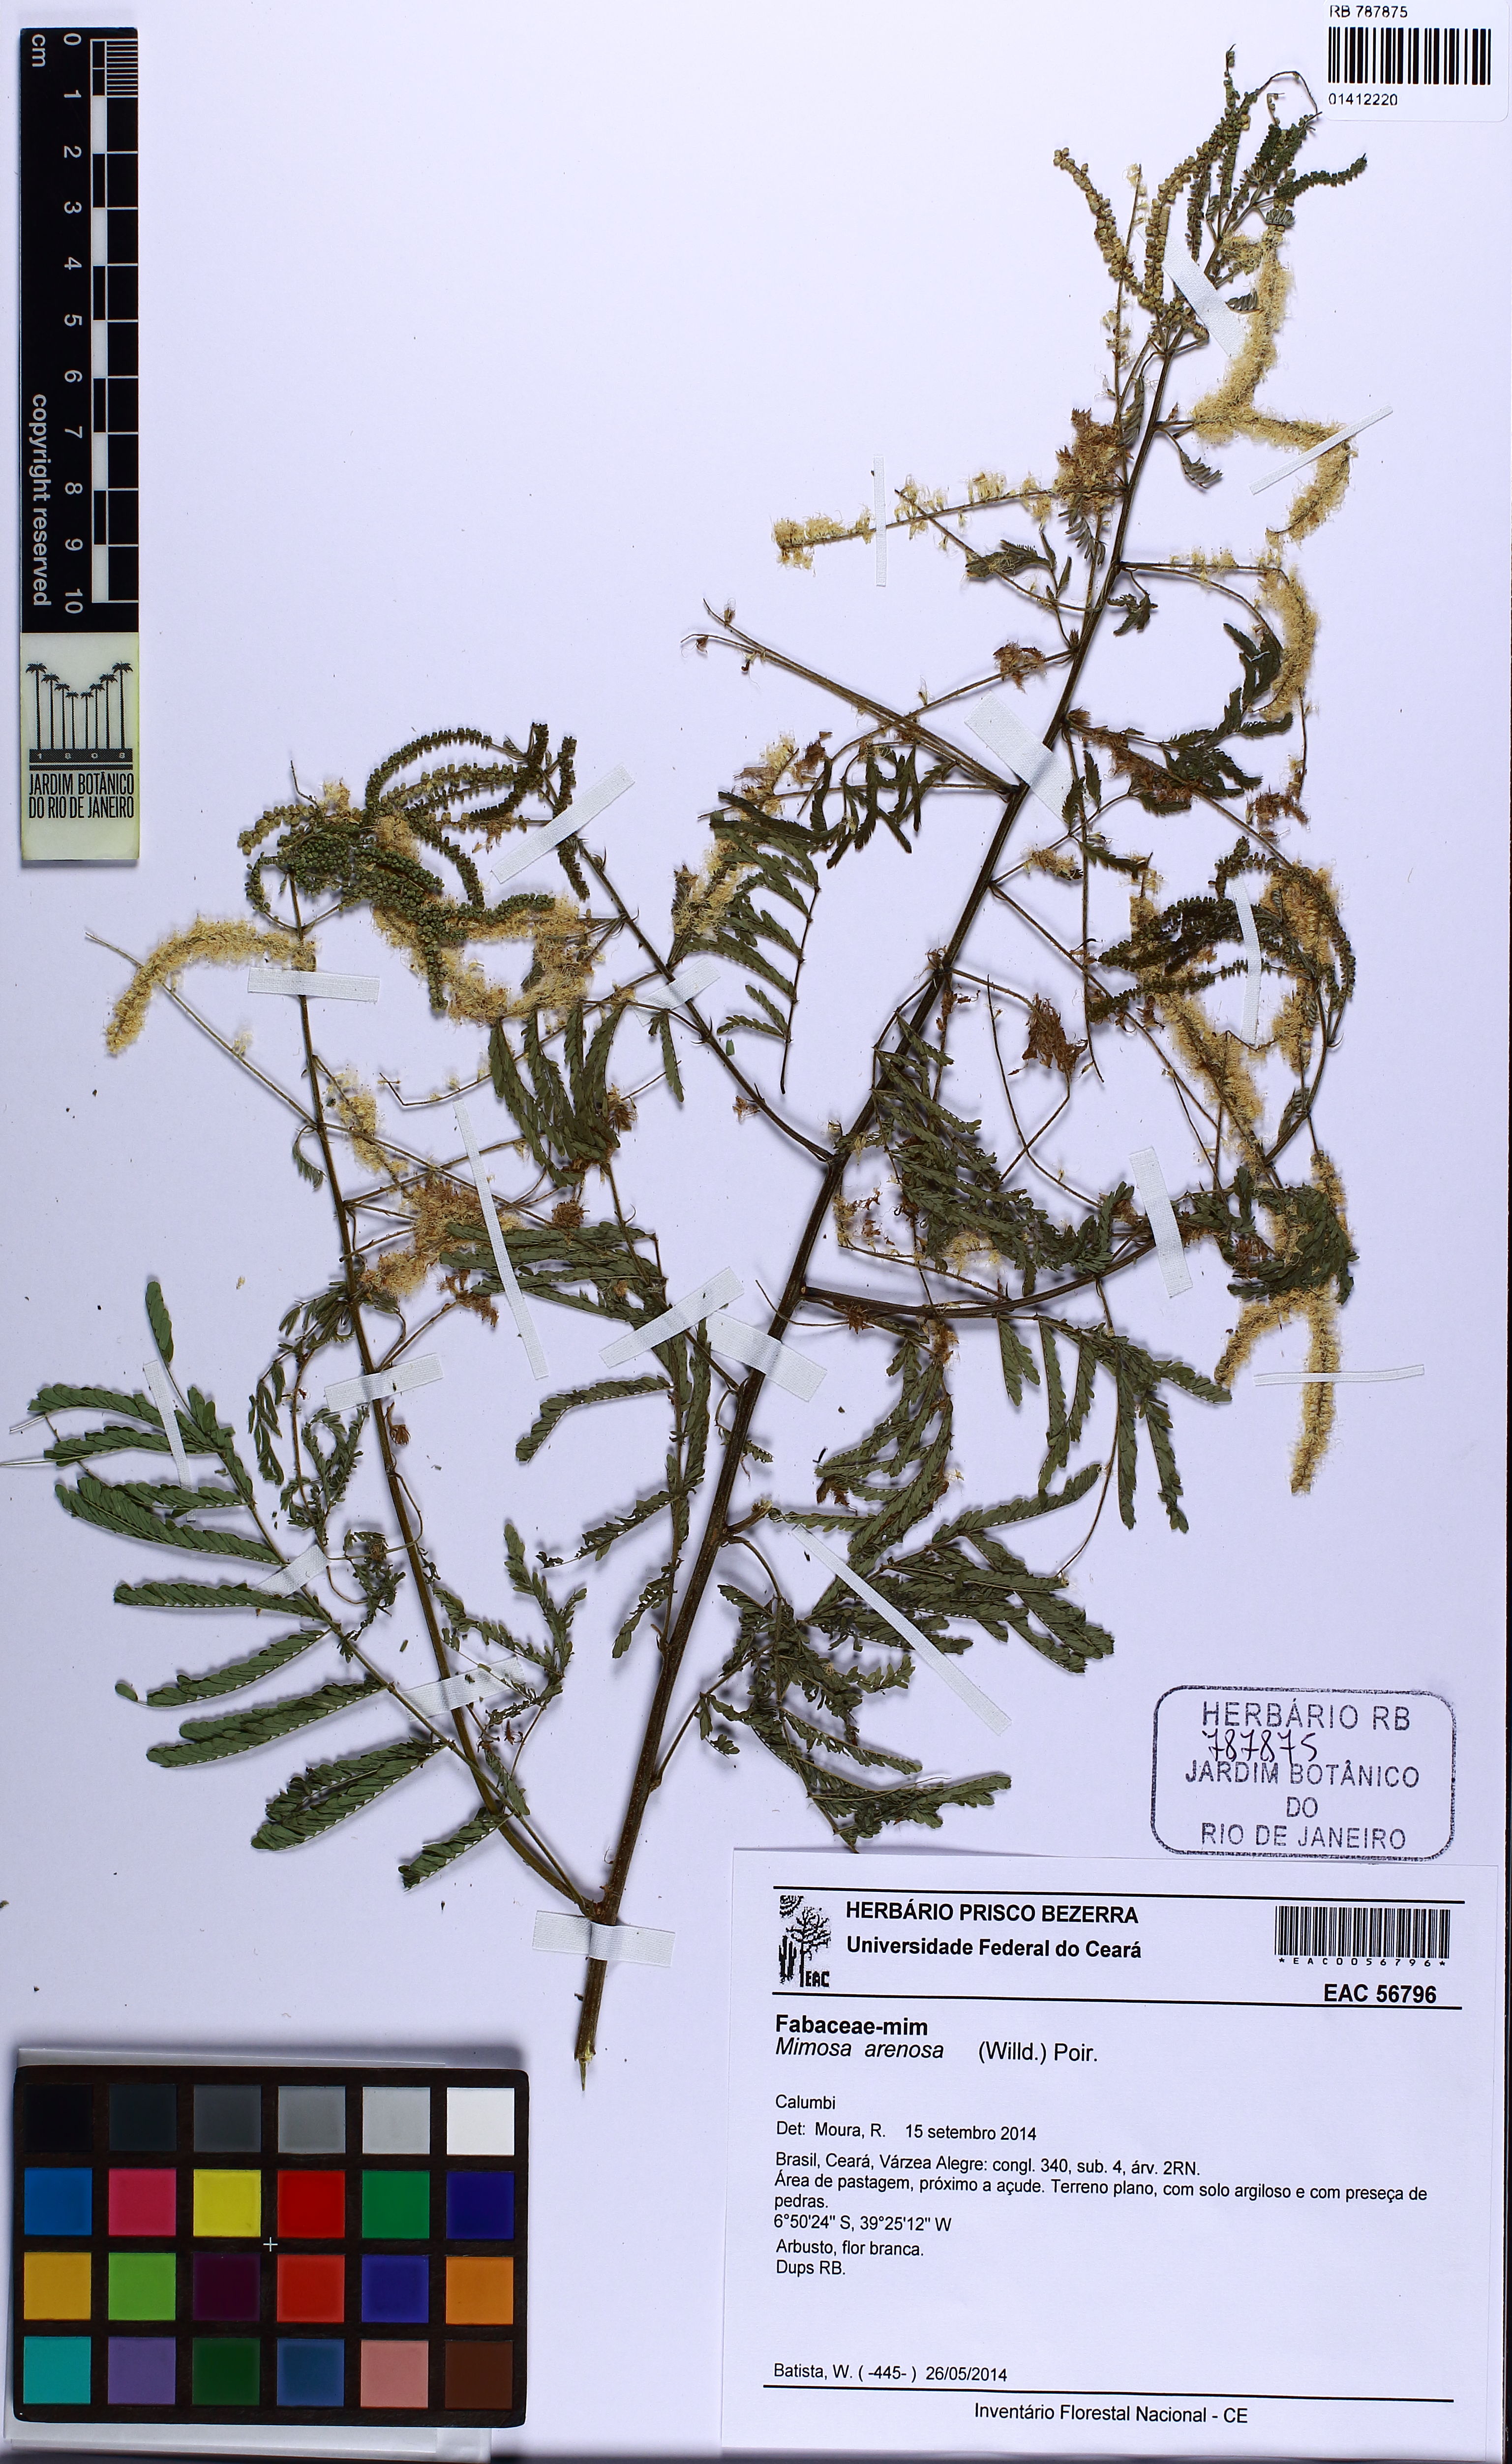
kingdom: Plantae
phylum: Tracheophyta
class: Magnoliopsida
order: Fabales
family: Fabaceae
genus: Mimosa
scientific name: Mimosa arenosa
